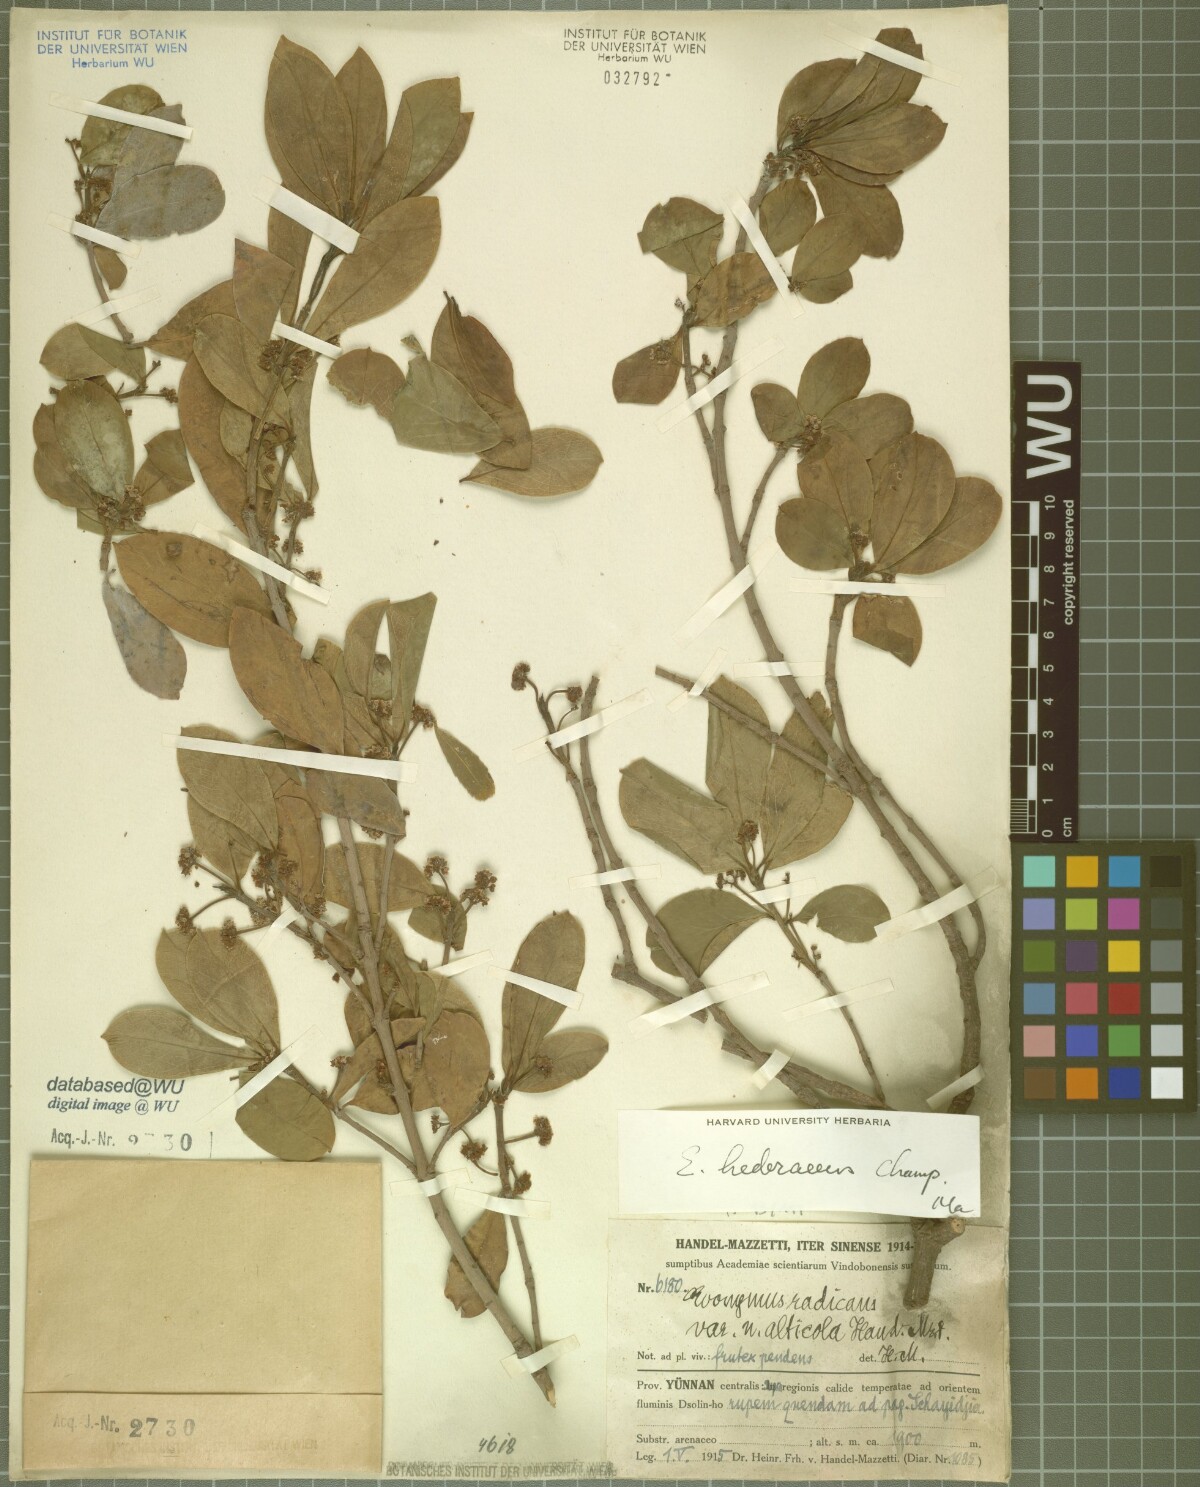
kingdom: Plantae
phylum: Tracheophyta
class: Magnoliopsida
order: Celastrales
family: Celastraceae
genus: Euonymus
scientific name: Euonymus fortunei
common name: Climbing euonymus
